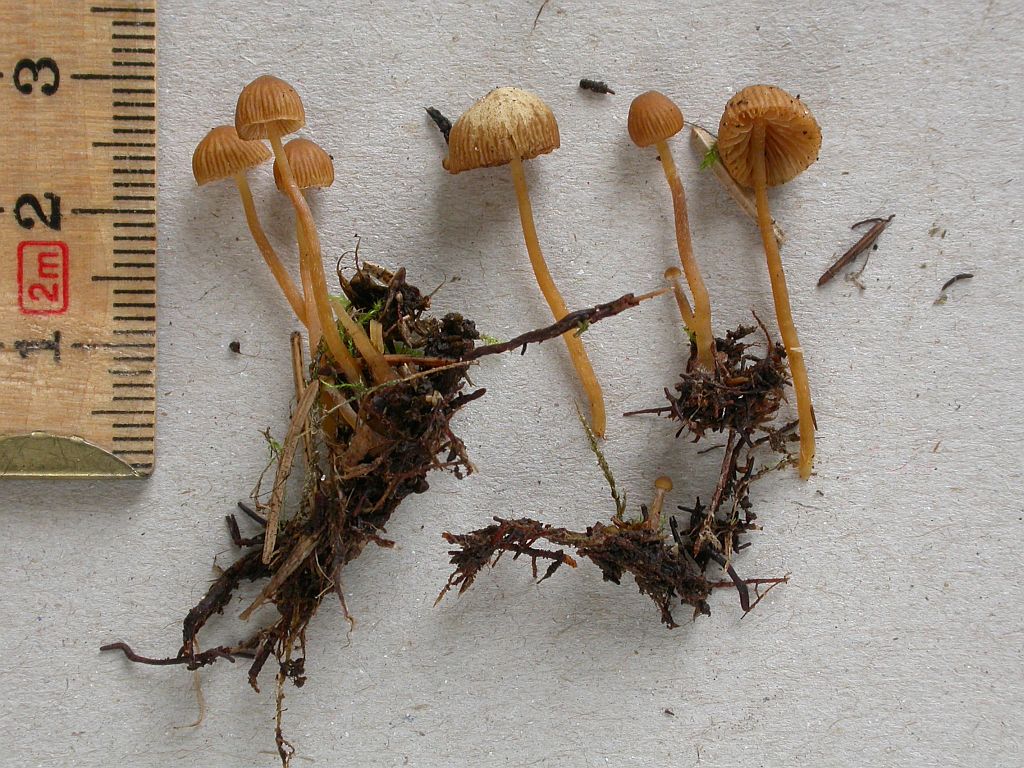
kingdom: Fungi
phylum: Basidiomycota
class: Agaricomycetes
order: Agaricales
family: Hymenogastraceae
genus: Galerina
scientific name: Galerina hypnorum
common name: mos-hjelmhat
